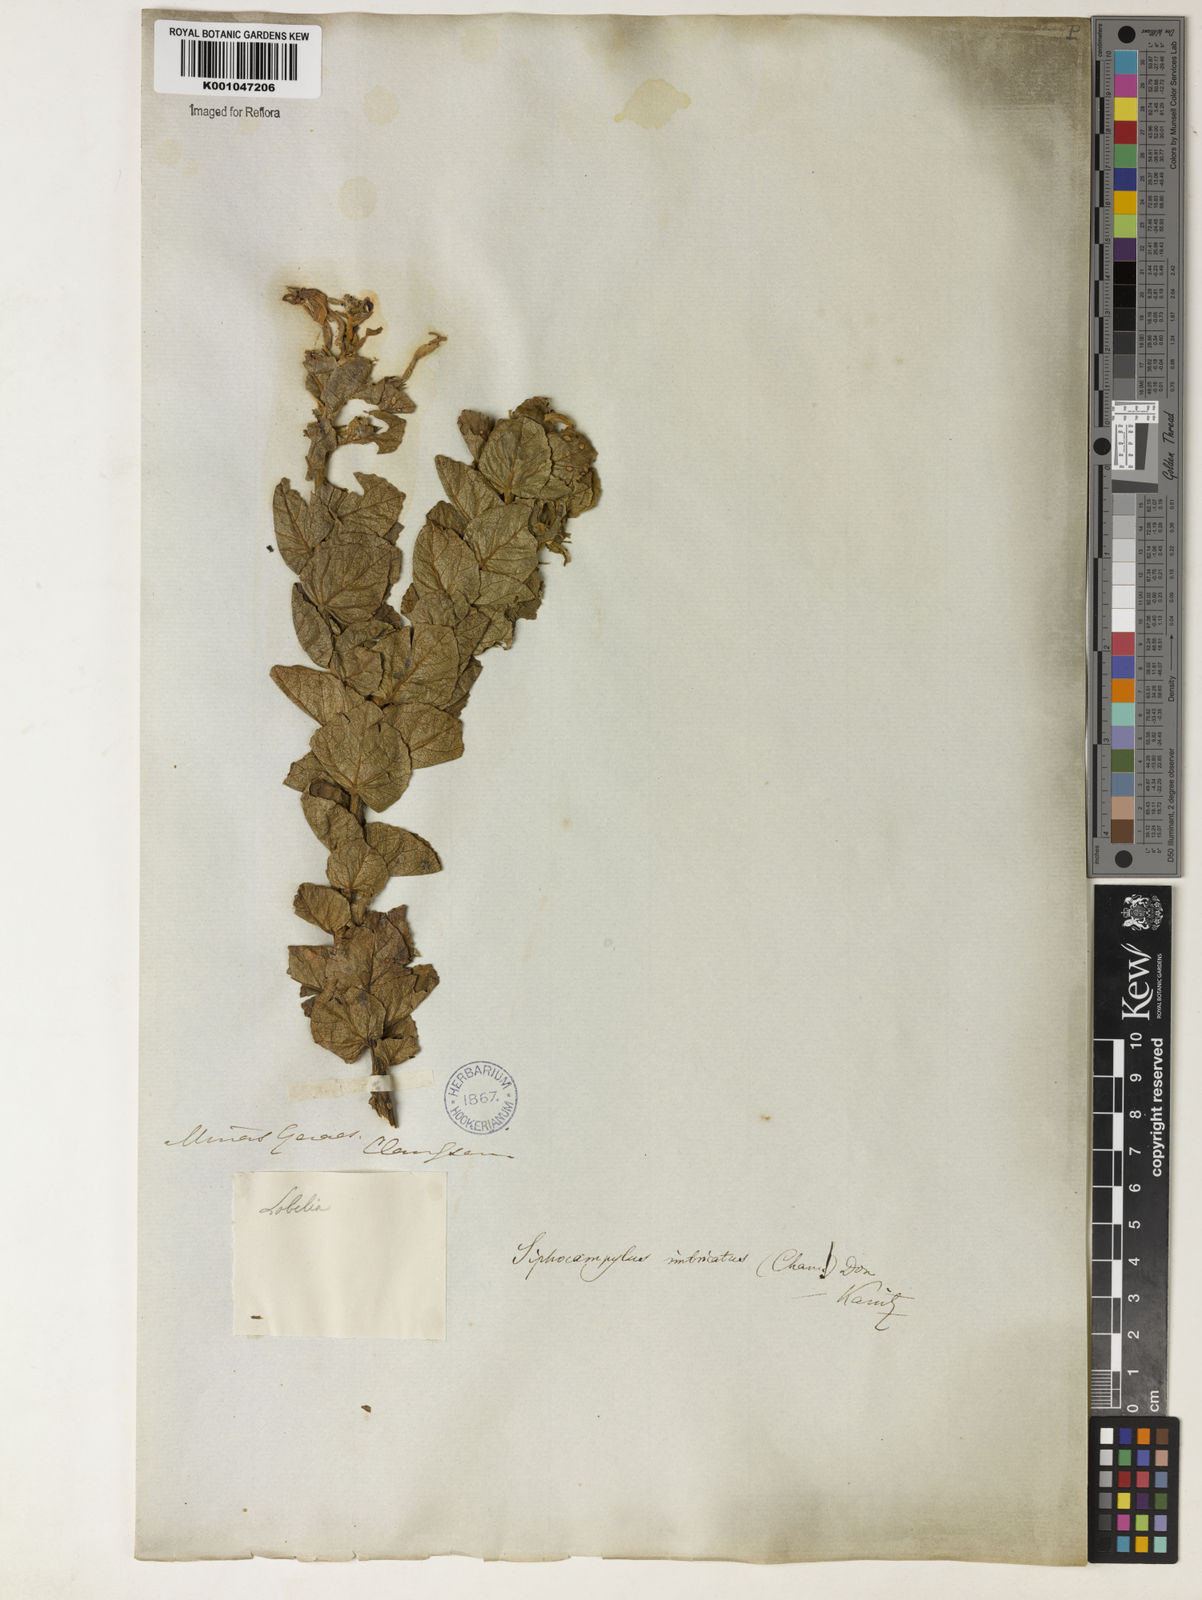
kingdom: Plantae
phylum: Tracheophyta
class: Magnoliopsida
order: Asterales
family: Campanulaceae
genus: Siphocampylus
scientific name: Siphocampylus imbricatus
